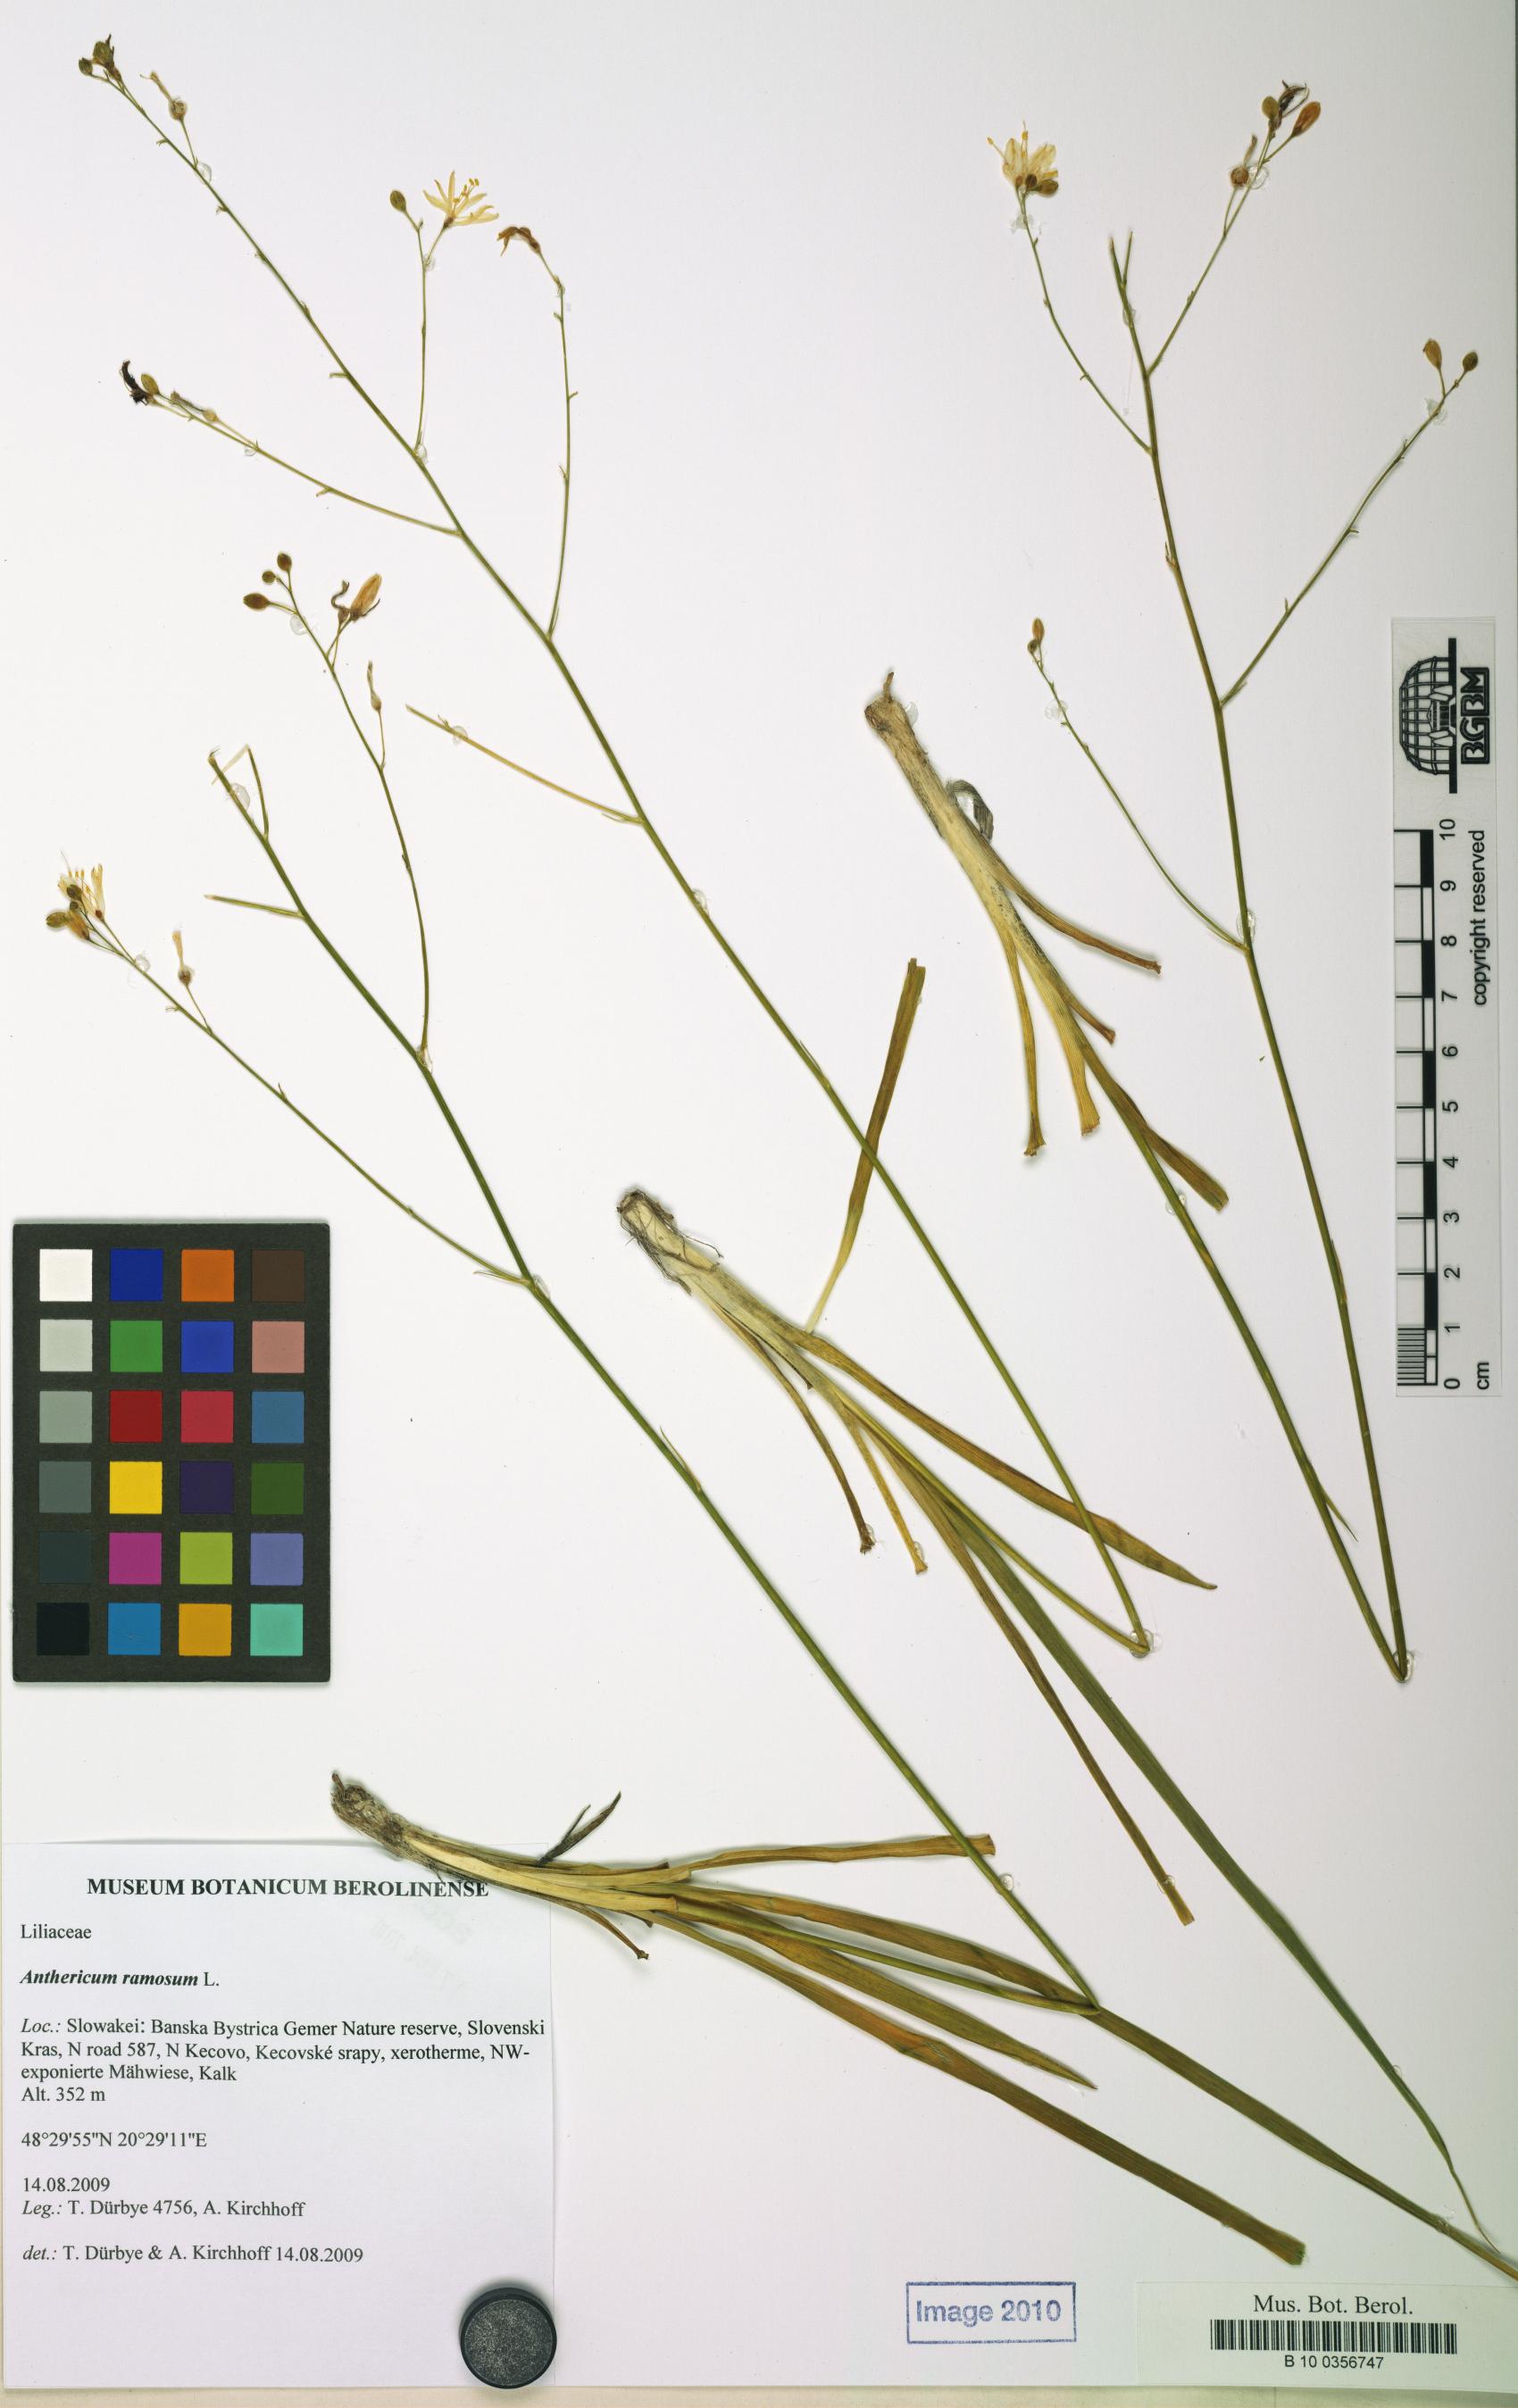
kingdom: Plantae
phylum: Tracheophyta
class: Liliopsida
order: Asparagales
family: Asparagaceae
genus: Anthericum
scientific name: Anthericum ramosum
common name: Branched st. bernard's-lily
